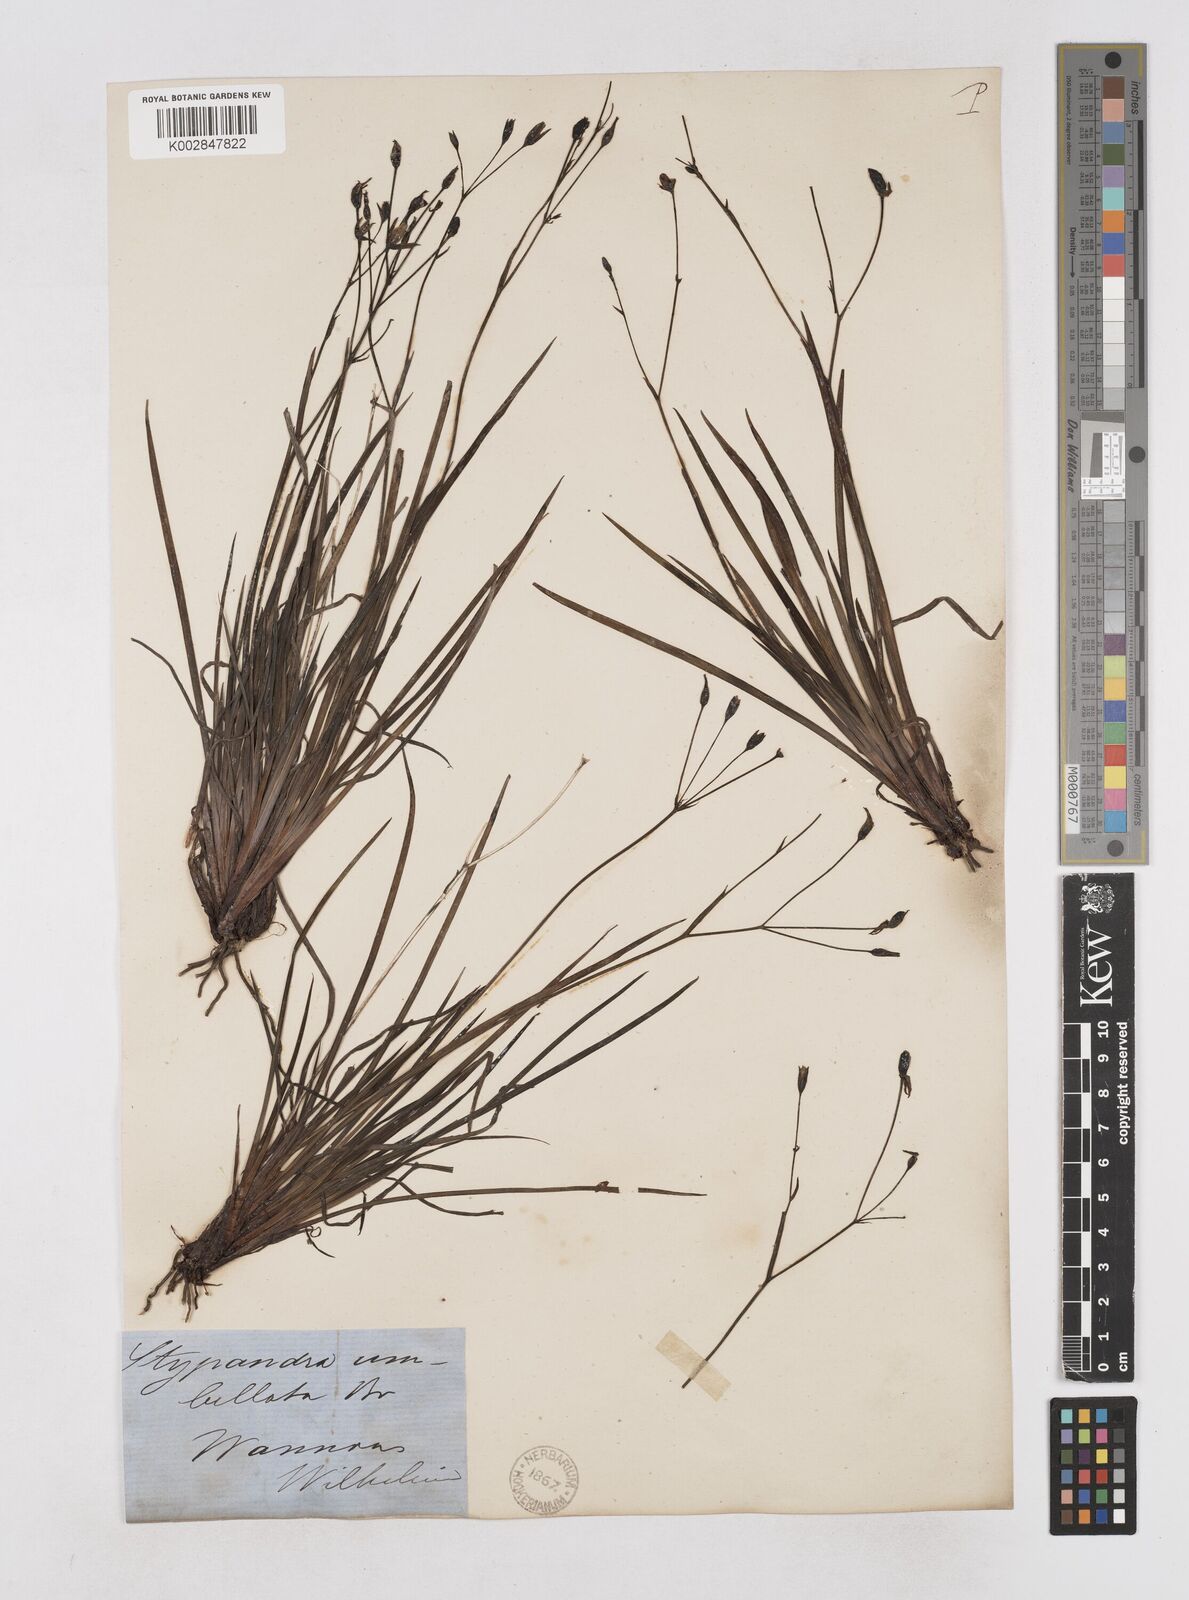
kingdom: Plantae
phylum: Tracheophyta
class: Liliopsida
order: Asparagales
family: Asphodelaceae
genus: Thelionema
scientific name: Thelionema umbellatum
